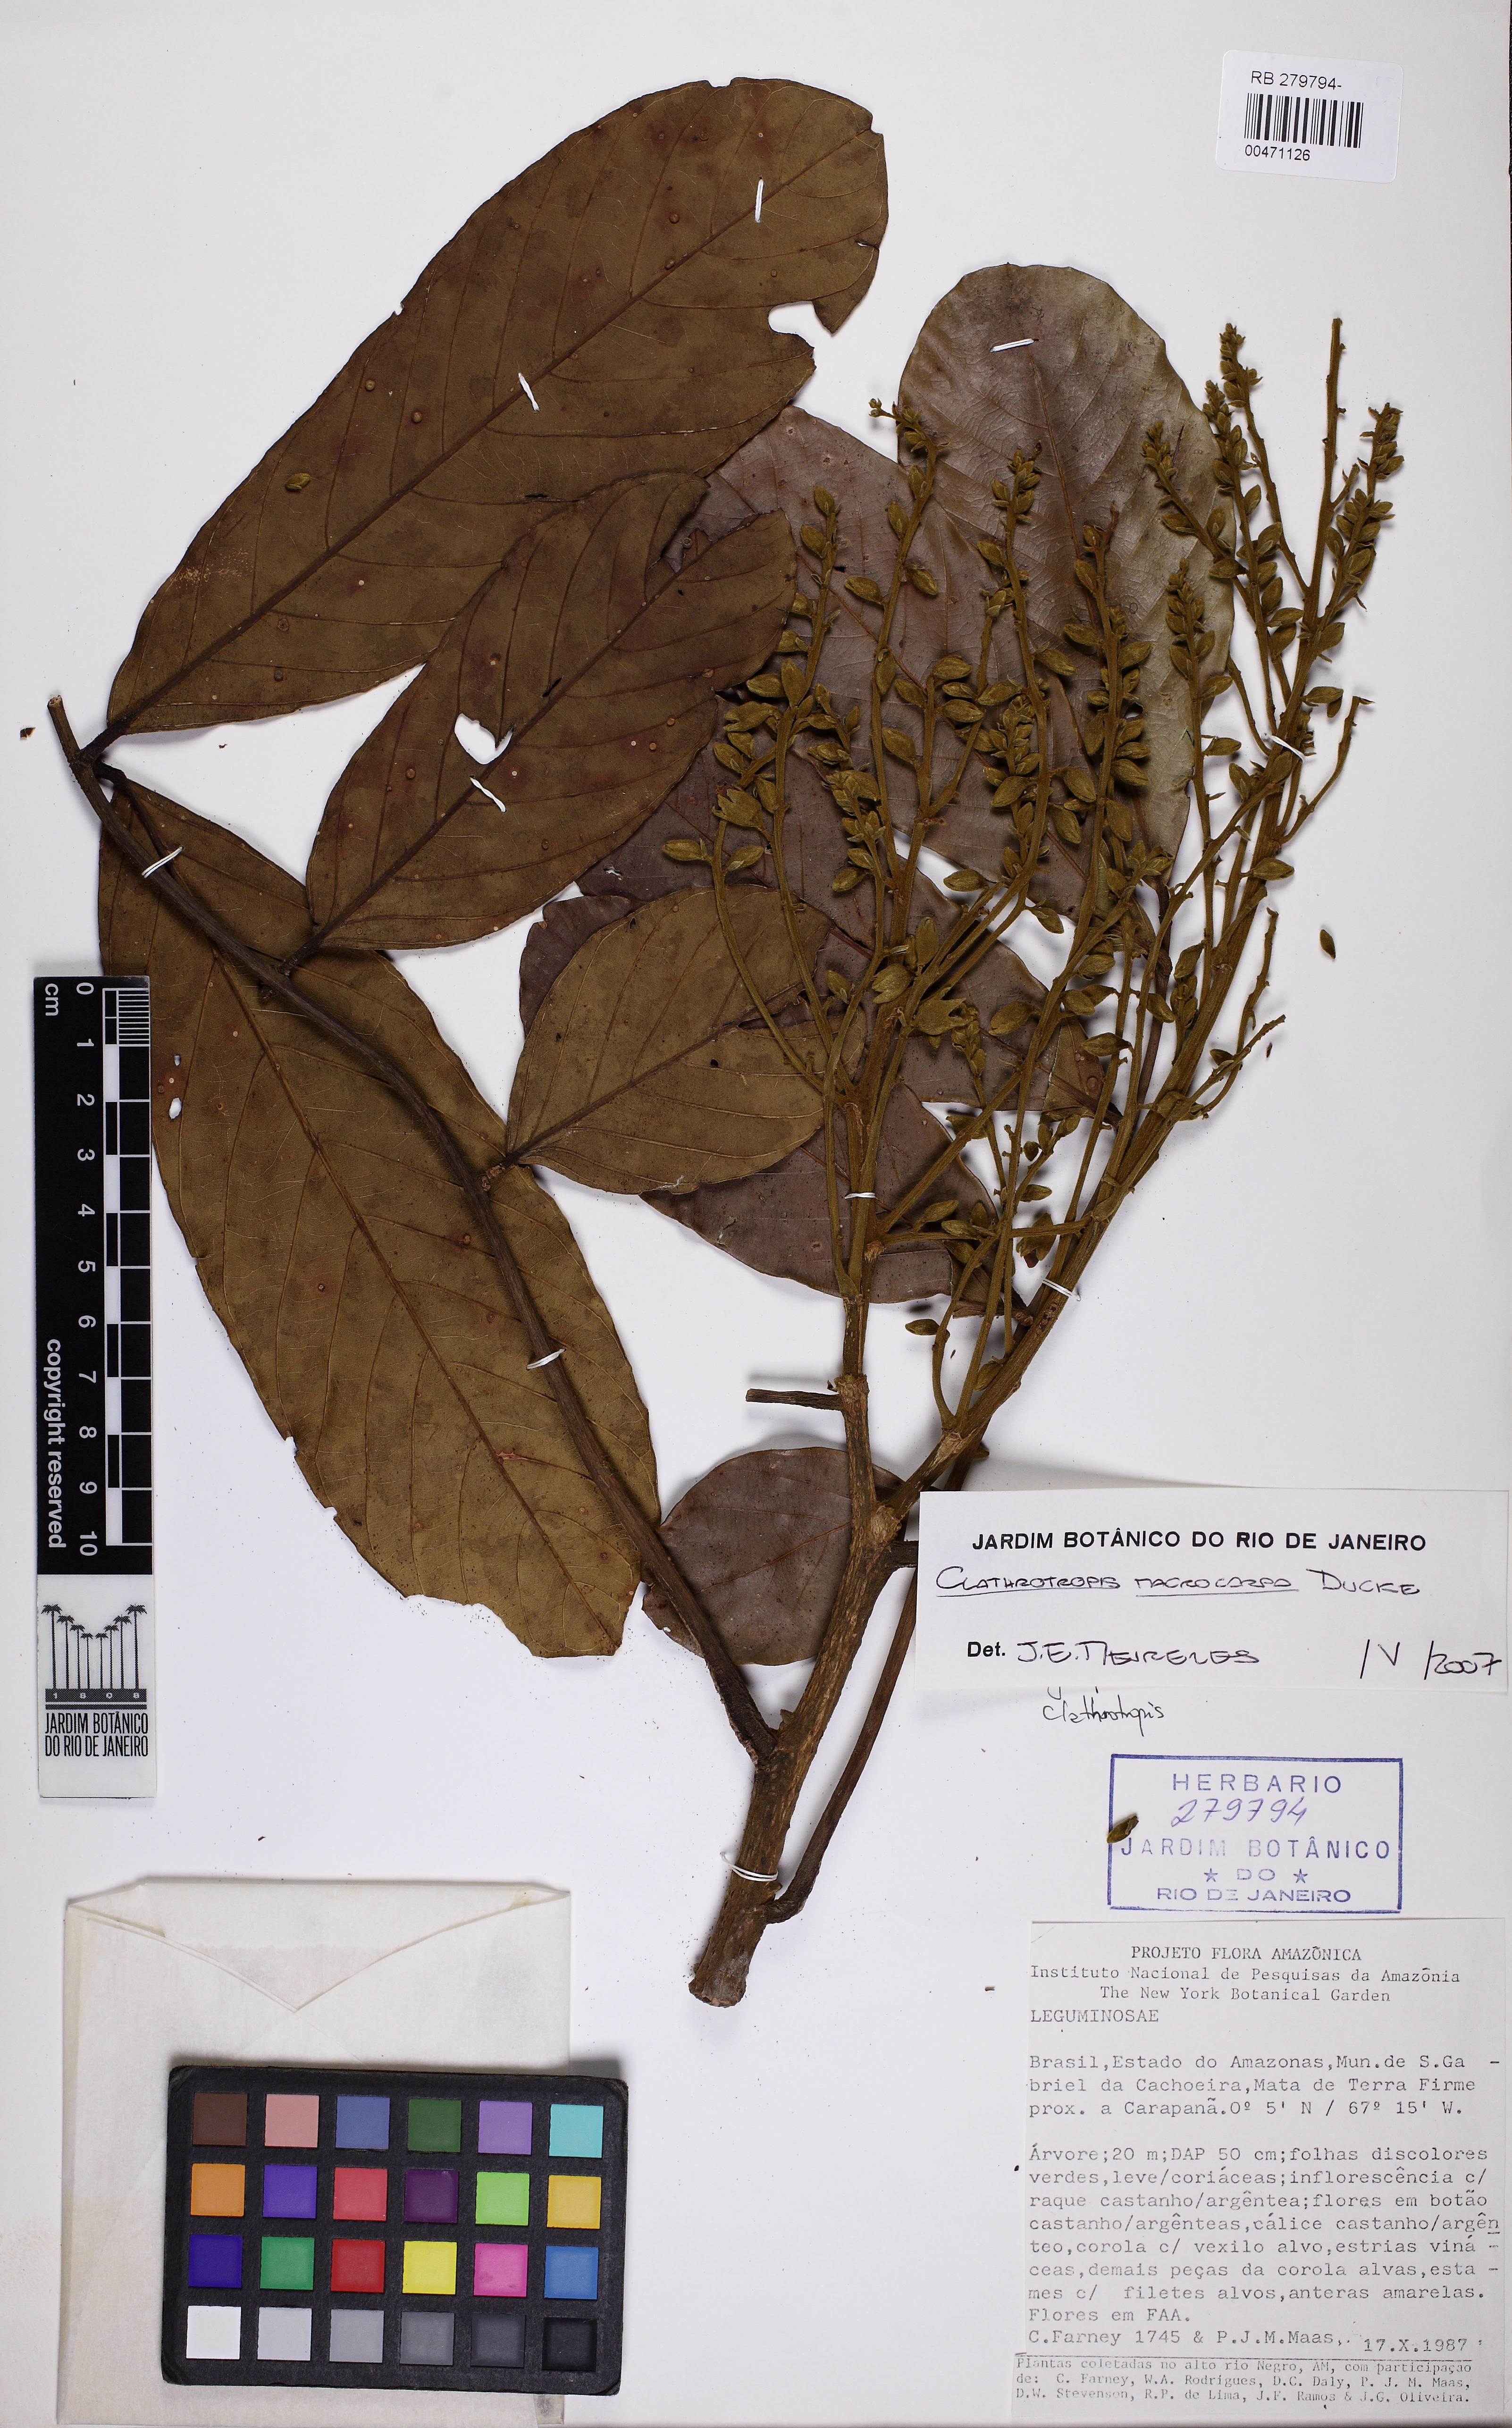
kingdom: Plantae
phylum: Tracheophyta
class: Magnoliopsida
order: Fabales
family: Fabaceae
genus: Clathrotropis
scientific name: Clathrotropis macrocarpa
